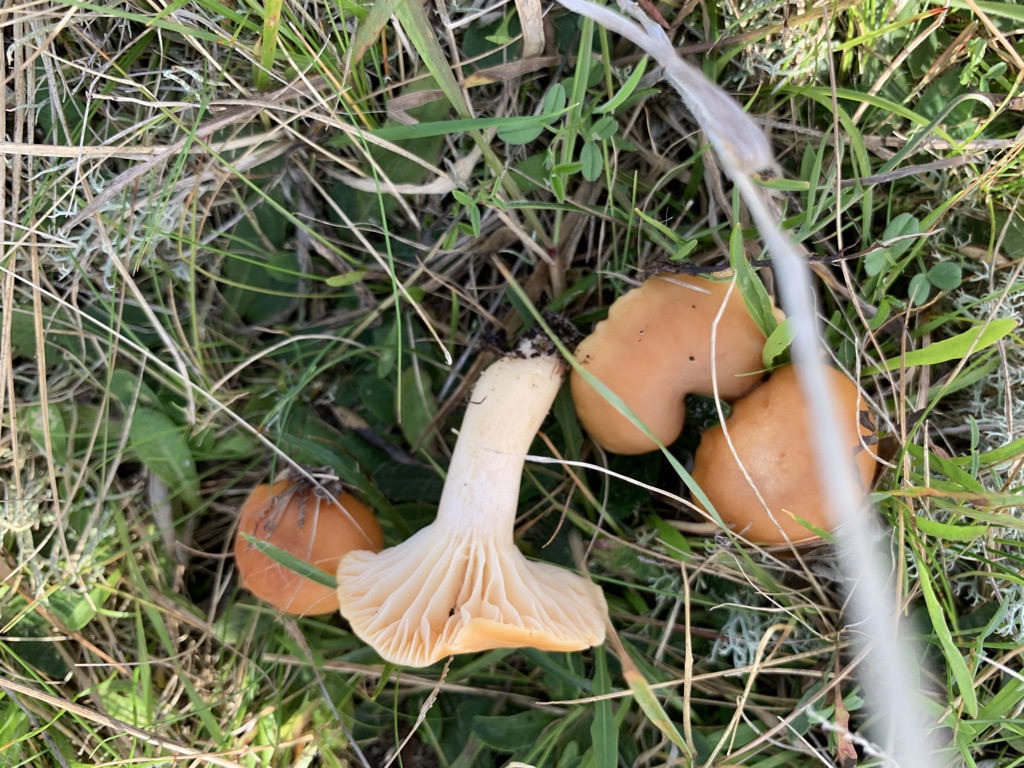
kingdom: Fungi
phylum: Basidiomycota
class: Agaricomycetes
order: Agaricales
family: Hygrophoraceae
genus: Cuphophyllus
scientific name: Cuphophyllus pratensis
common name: eng-vokshat
